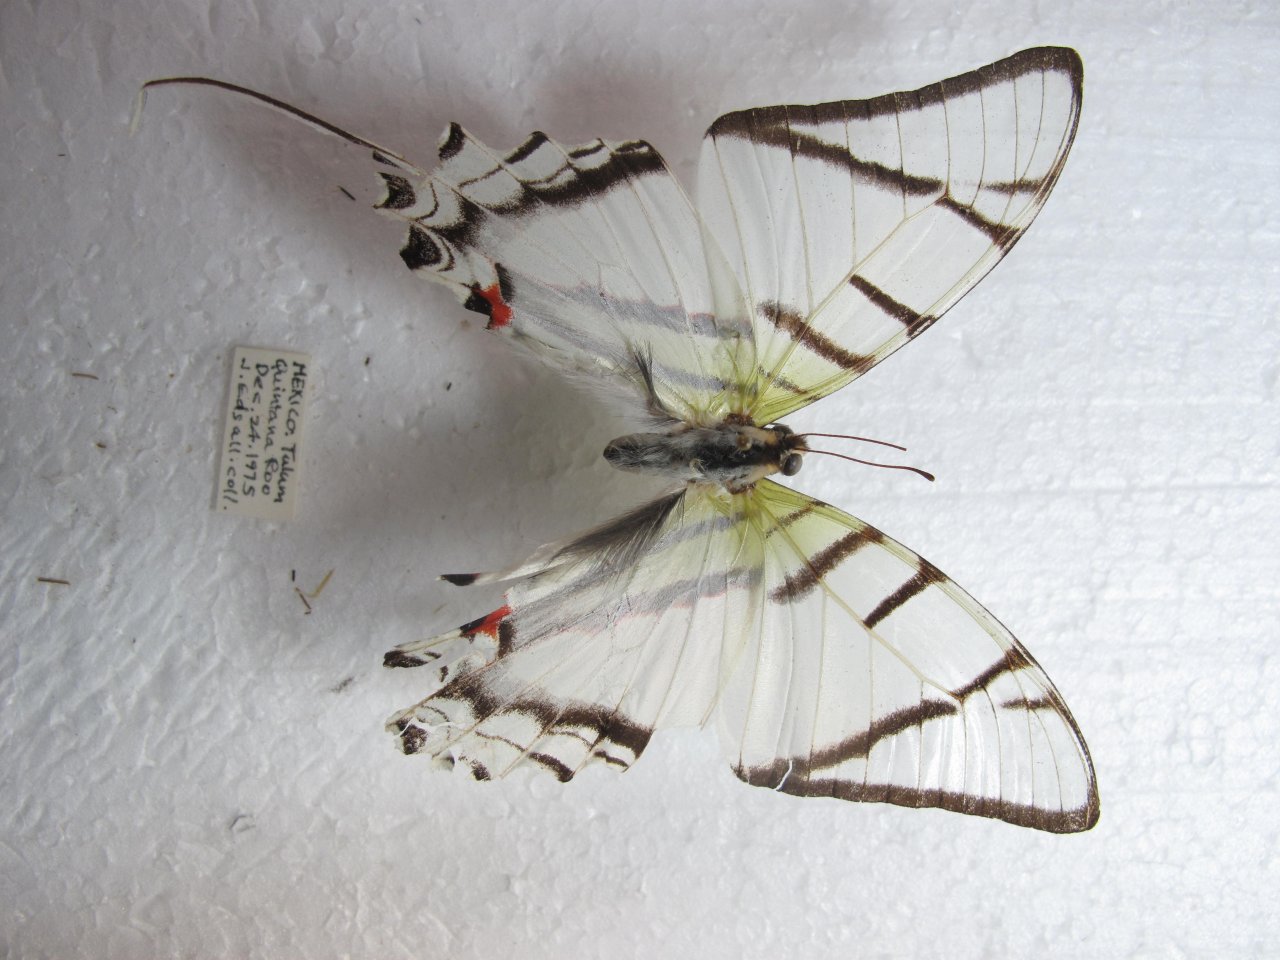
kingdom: Animalia
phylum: Arthropoda
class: Insecta
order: Lepidoptera
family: Papilionidae
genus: Eurytides
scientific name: Eurytides
